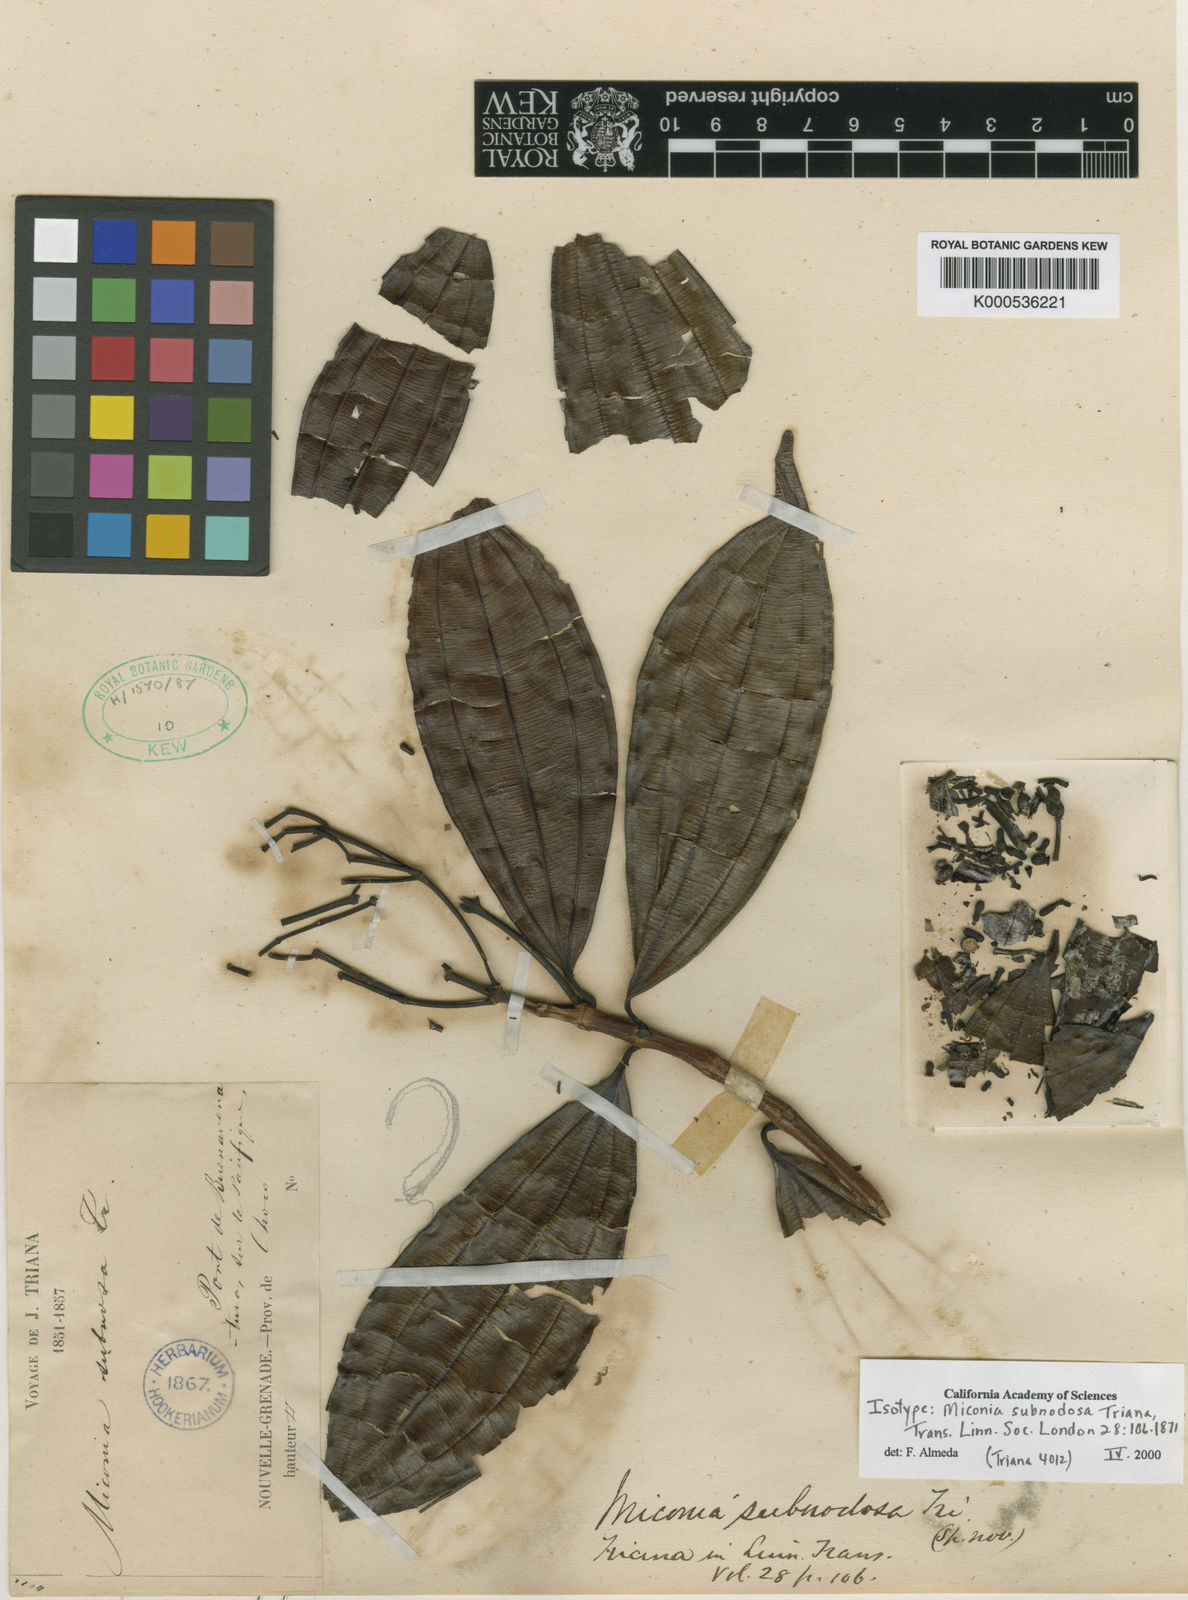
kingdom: Plantae
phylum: Tracheophyta
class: Magnoliopsida
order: Myrtales
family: Melastomataceae
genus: Miconia
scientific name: Miconia subnodosa
